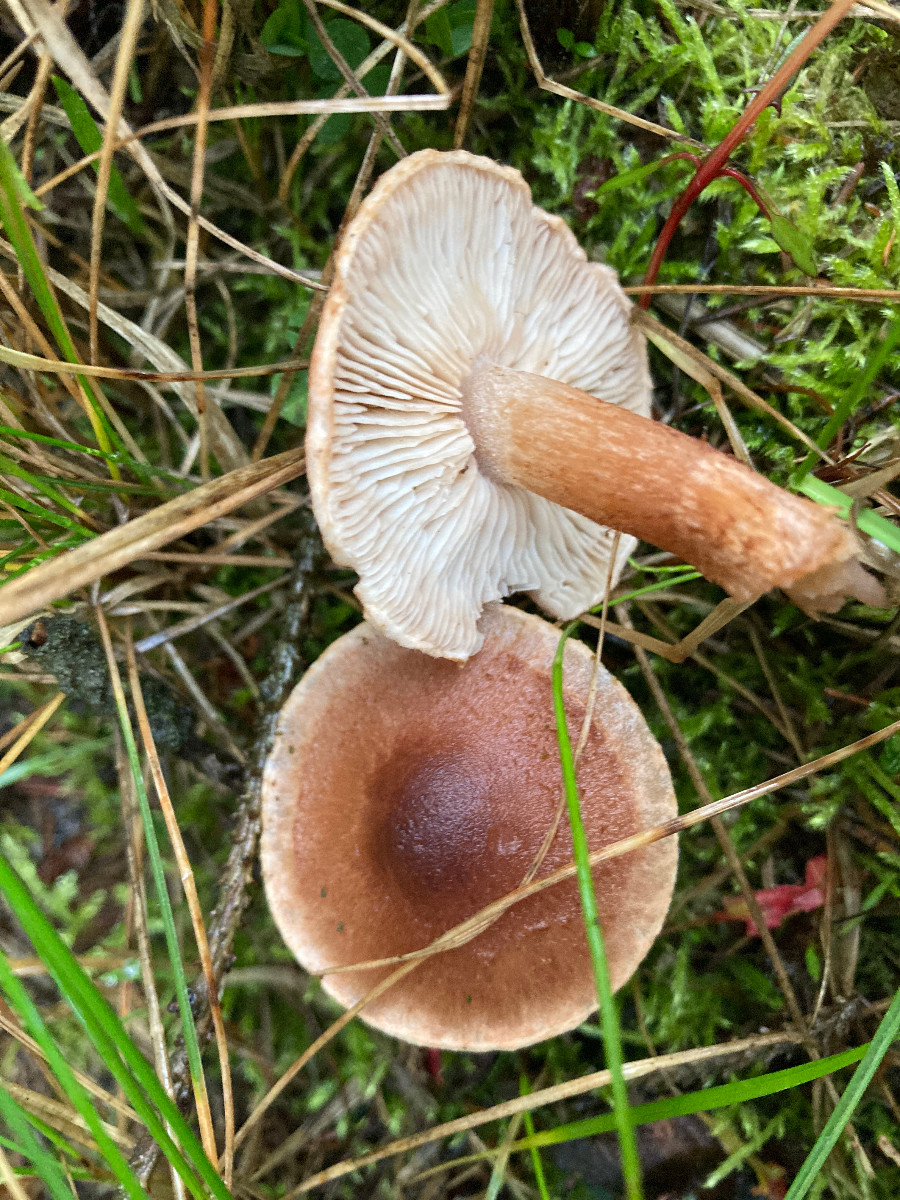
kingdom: Fungi
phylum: Basidiomycota
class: Agaricomycetes
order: Agaricales
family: Tricholomataceae
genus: Tricholoma
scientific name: Tricholoma vaccinum
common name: ko-ridderhat
